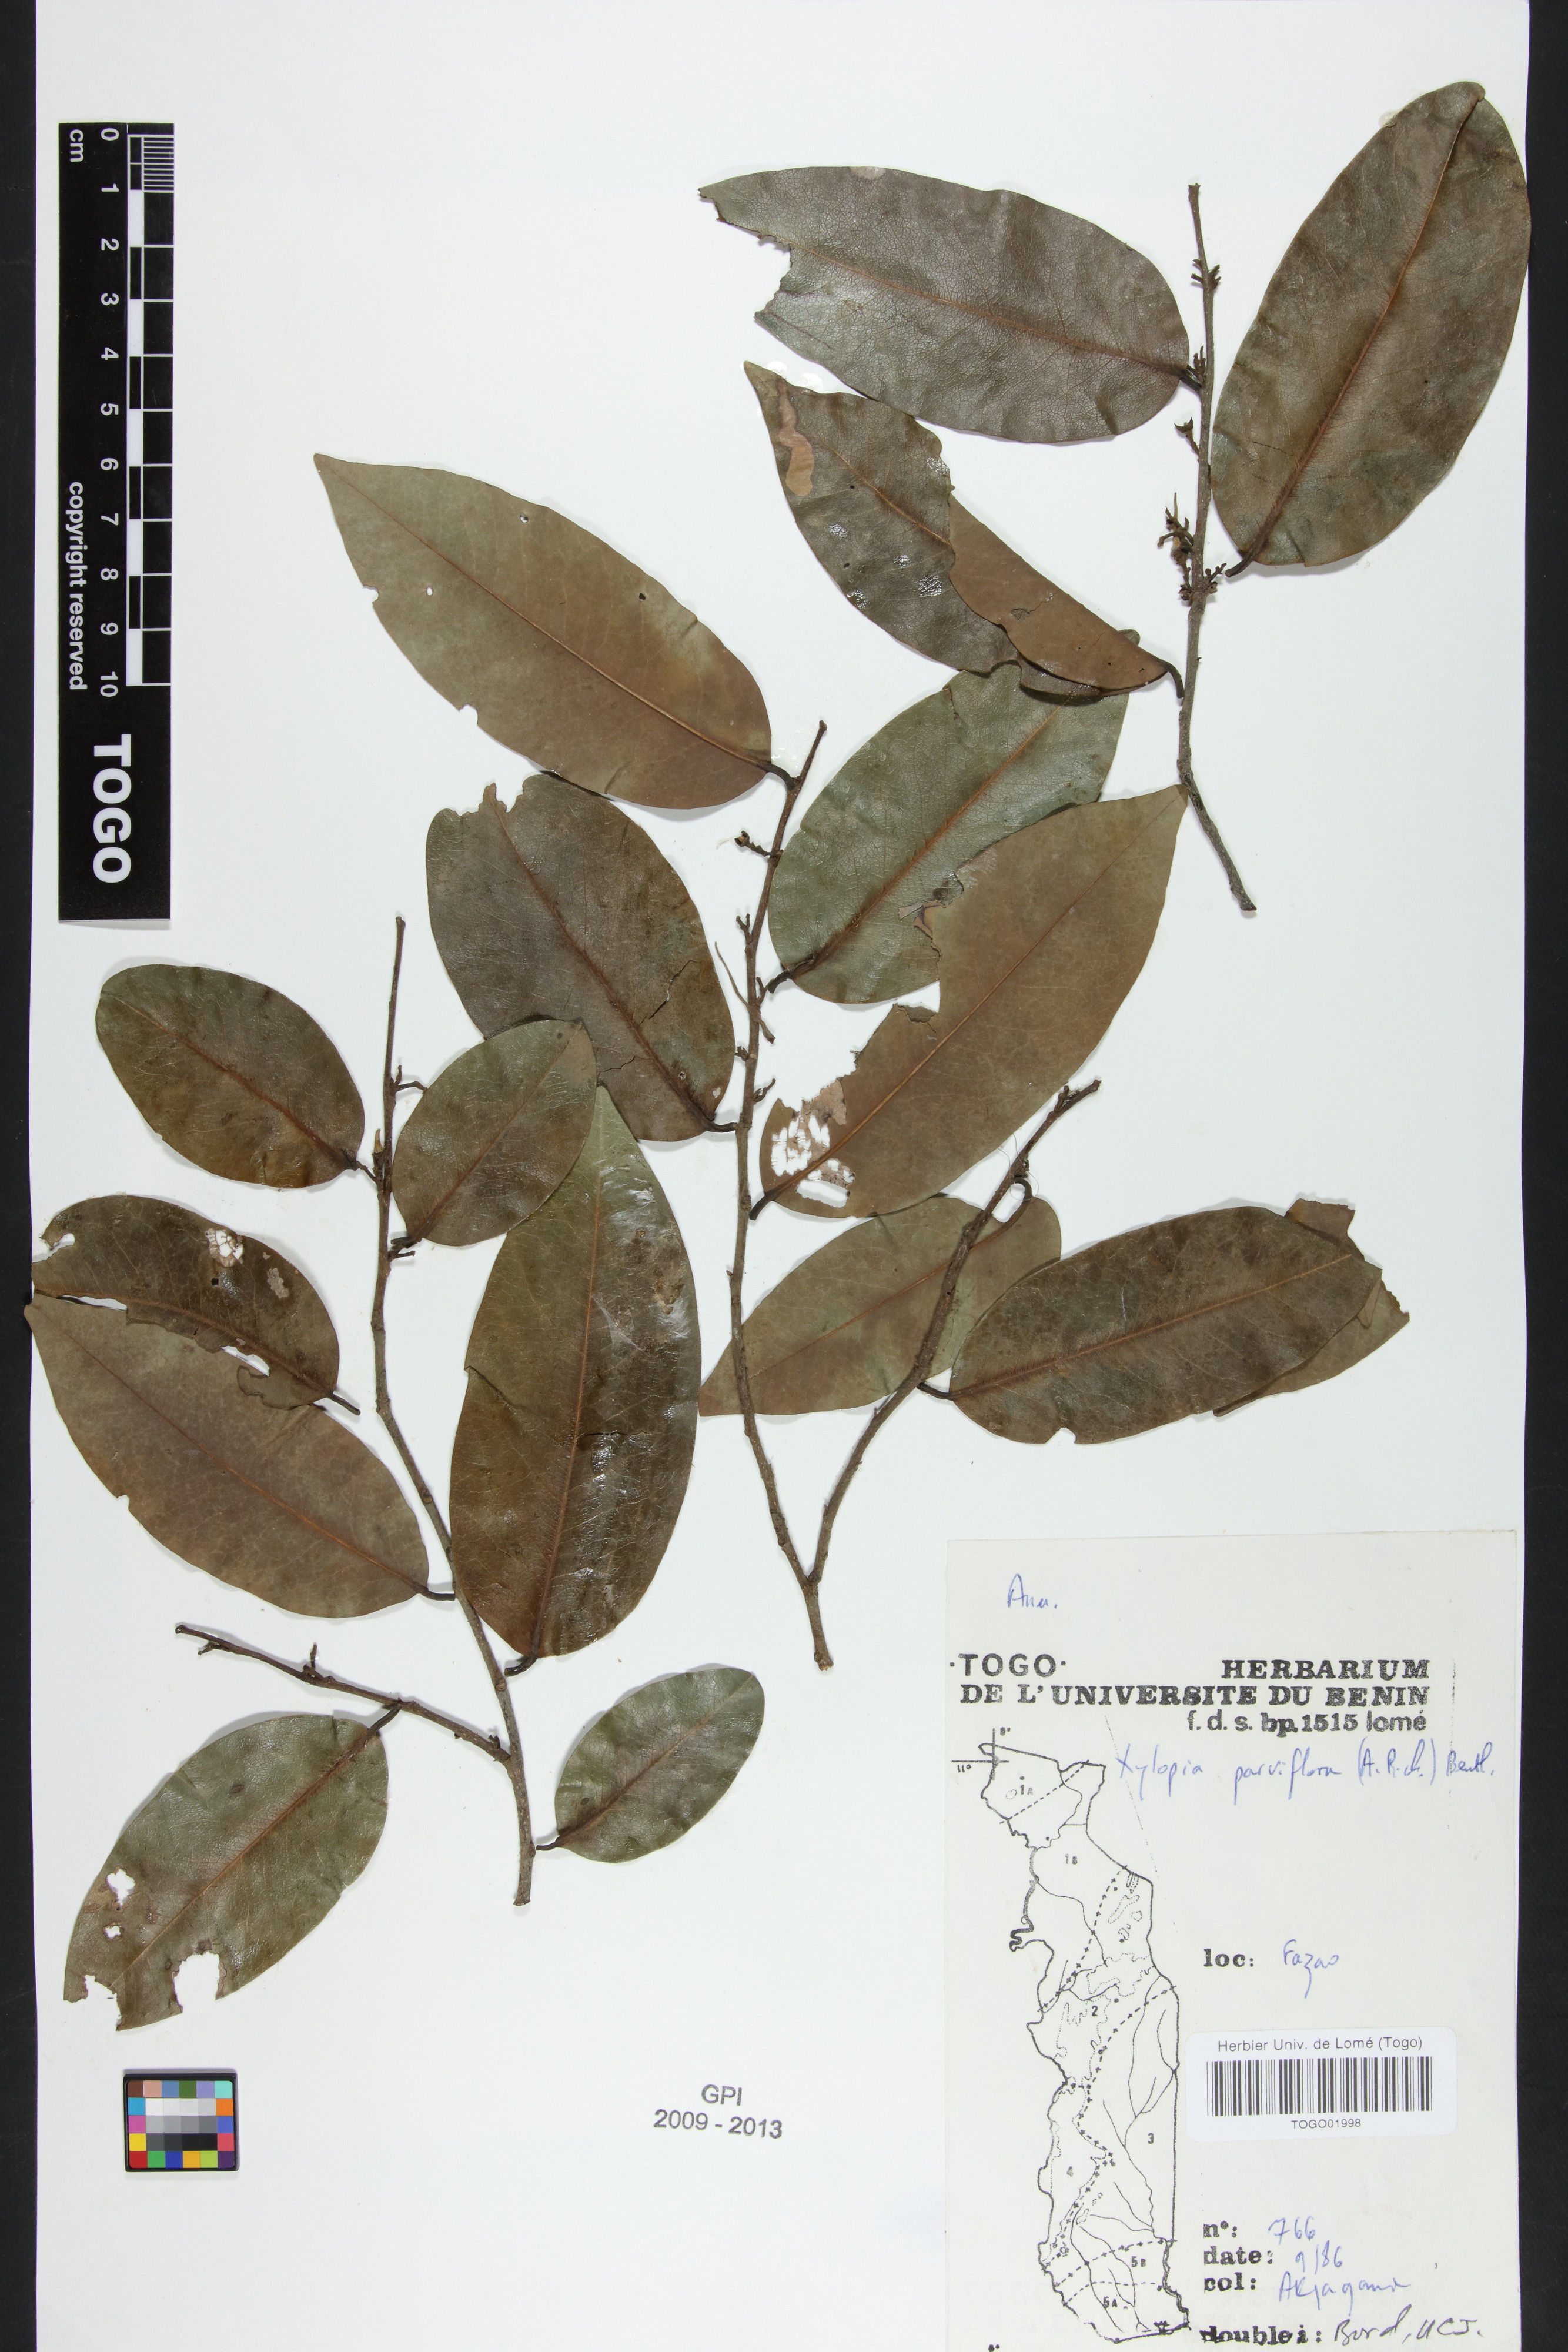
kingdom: Plantae
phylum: Tracheophyta
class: Magnoliopsida
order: Magnoliales
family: Annonaceae
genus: Xylopia
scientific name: Xylopia parviflora
